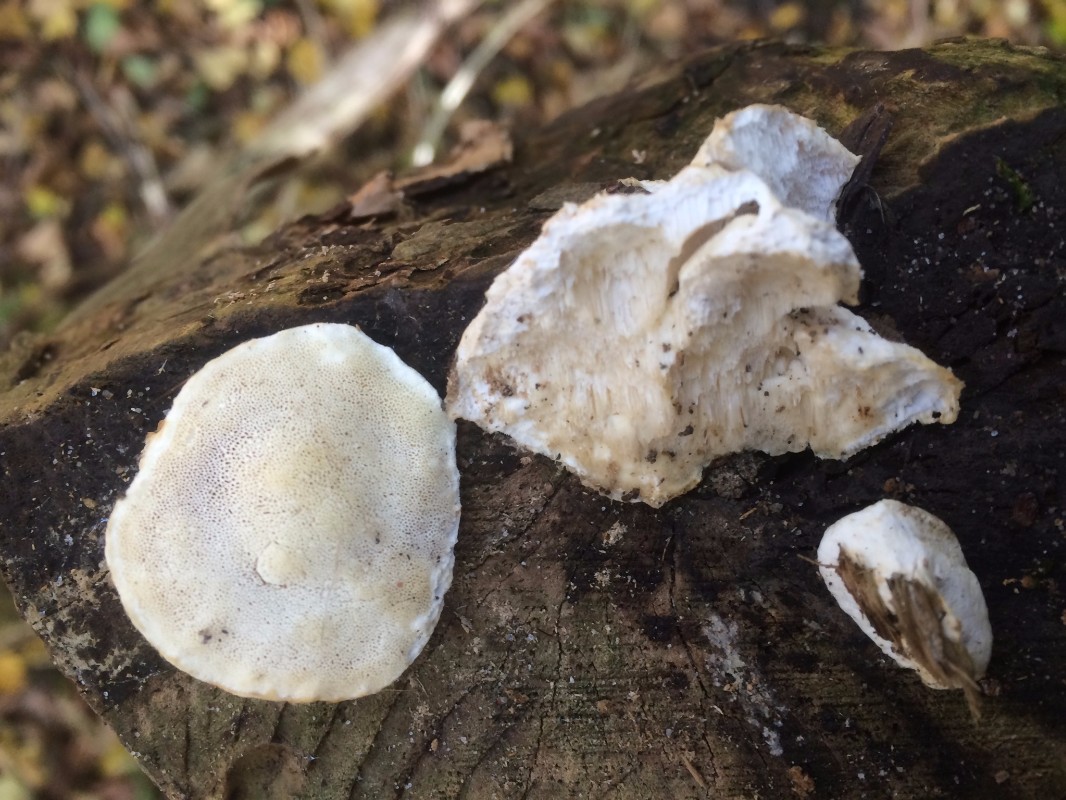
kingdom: Fungi
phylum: Basidiomycota
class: Agaricomycetes
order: Polyporales
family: Polyporaceae
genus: Cyanosporus
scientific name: Cyanosporus alni
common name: blegblå kødporesvamp
